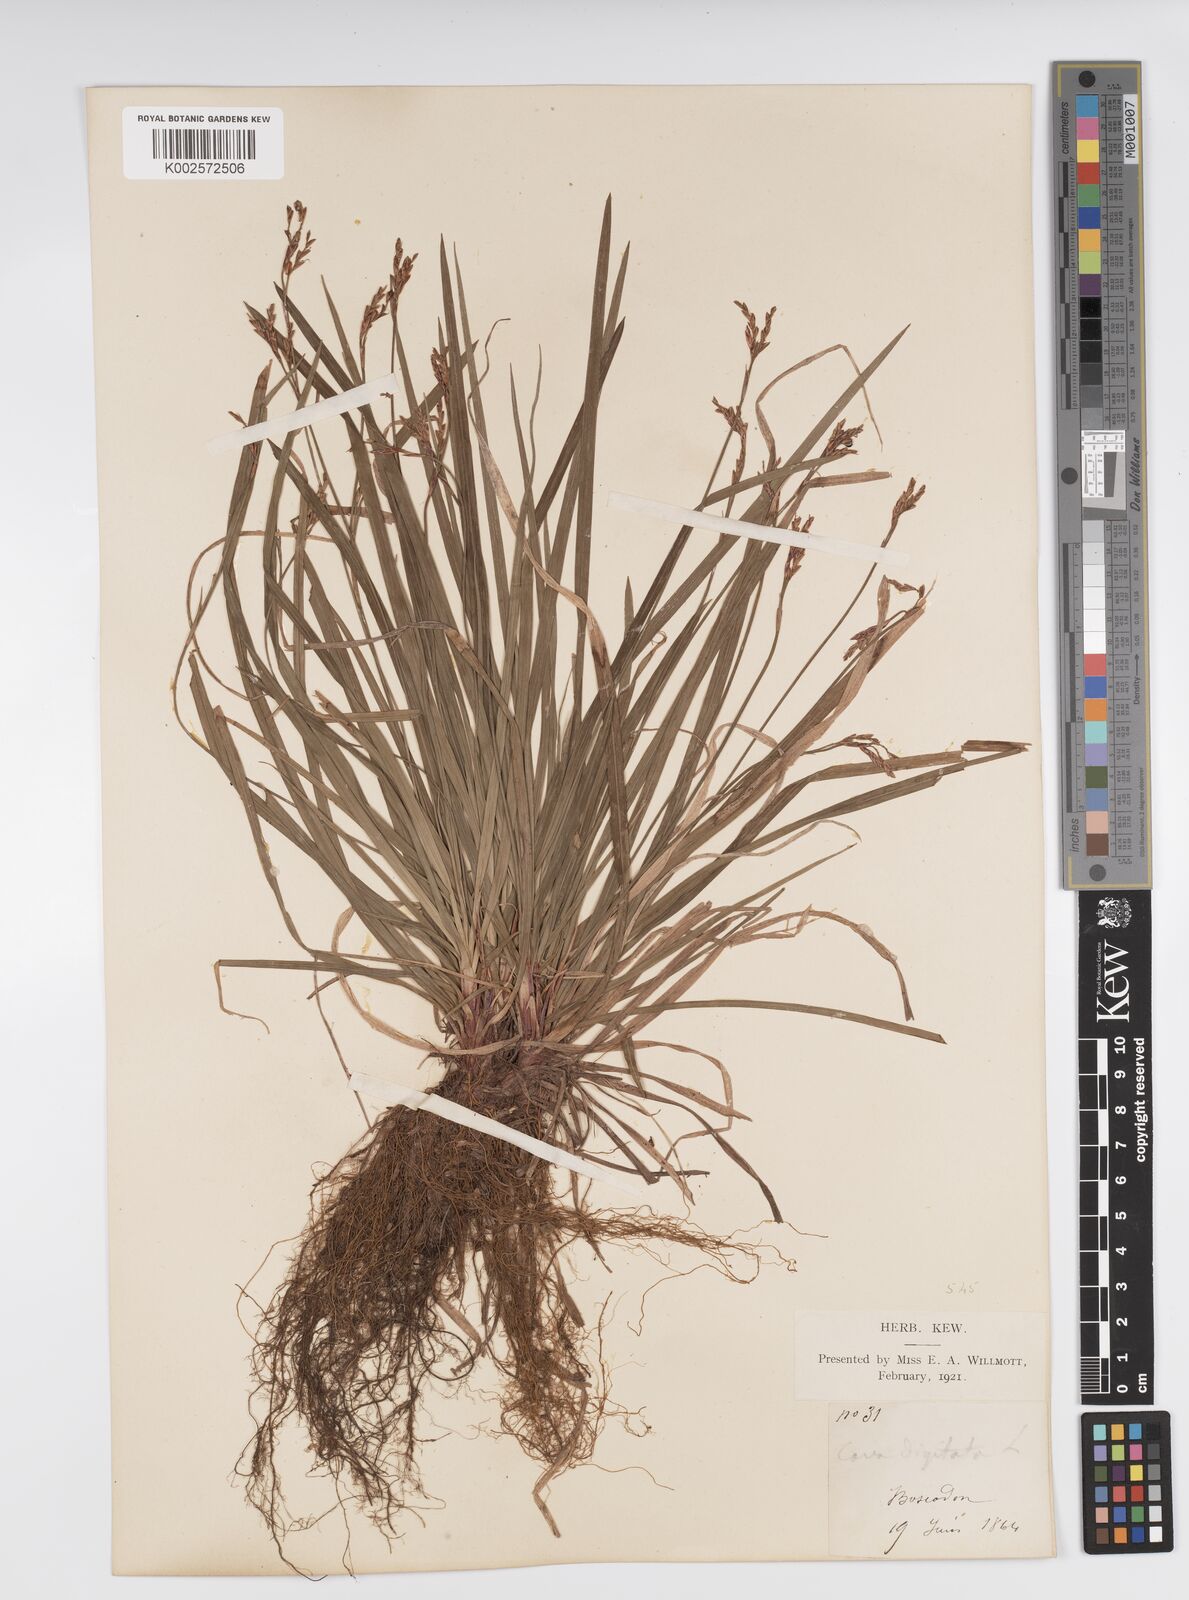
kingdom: Plantae
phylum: Tracheophyta
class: Liliopsida
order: Poales
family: Cyperaceae
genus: Carex
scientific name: Carex digitata
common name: Fingered sedge
